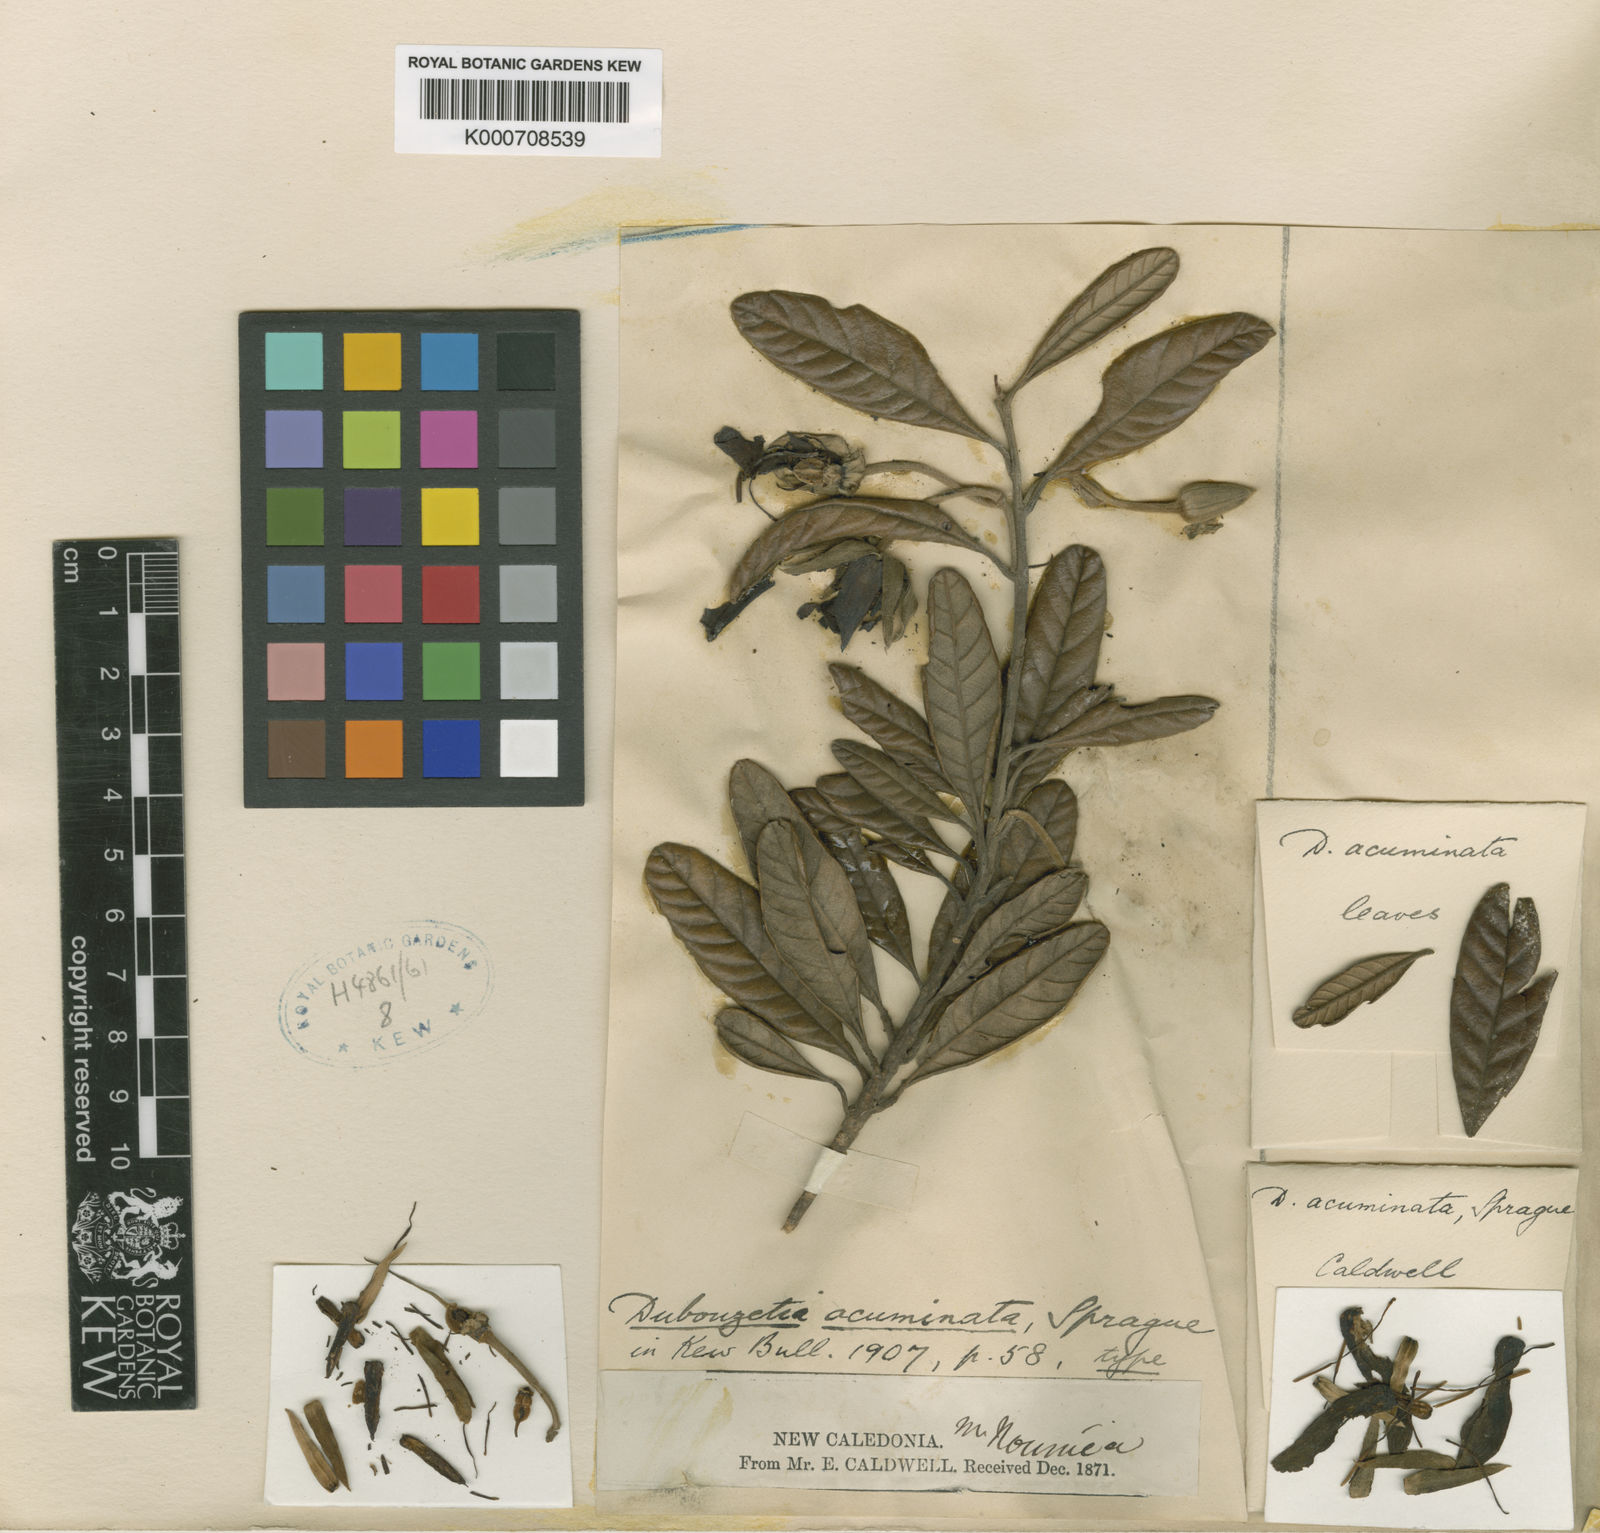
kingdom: Plantae
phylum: Tracheophyta
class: Magnoliopsida
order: Oxalidales
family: Elaeocarpaceae
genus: Dubouzetia
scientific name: Dubouzetia acuminata
